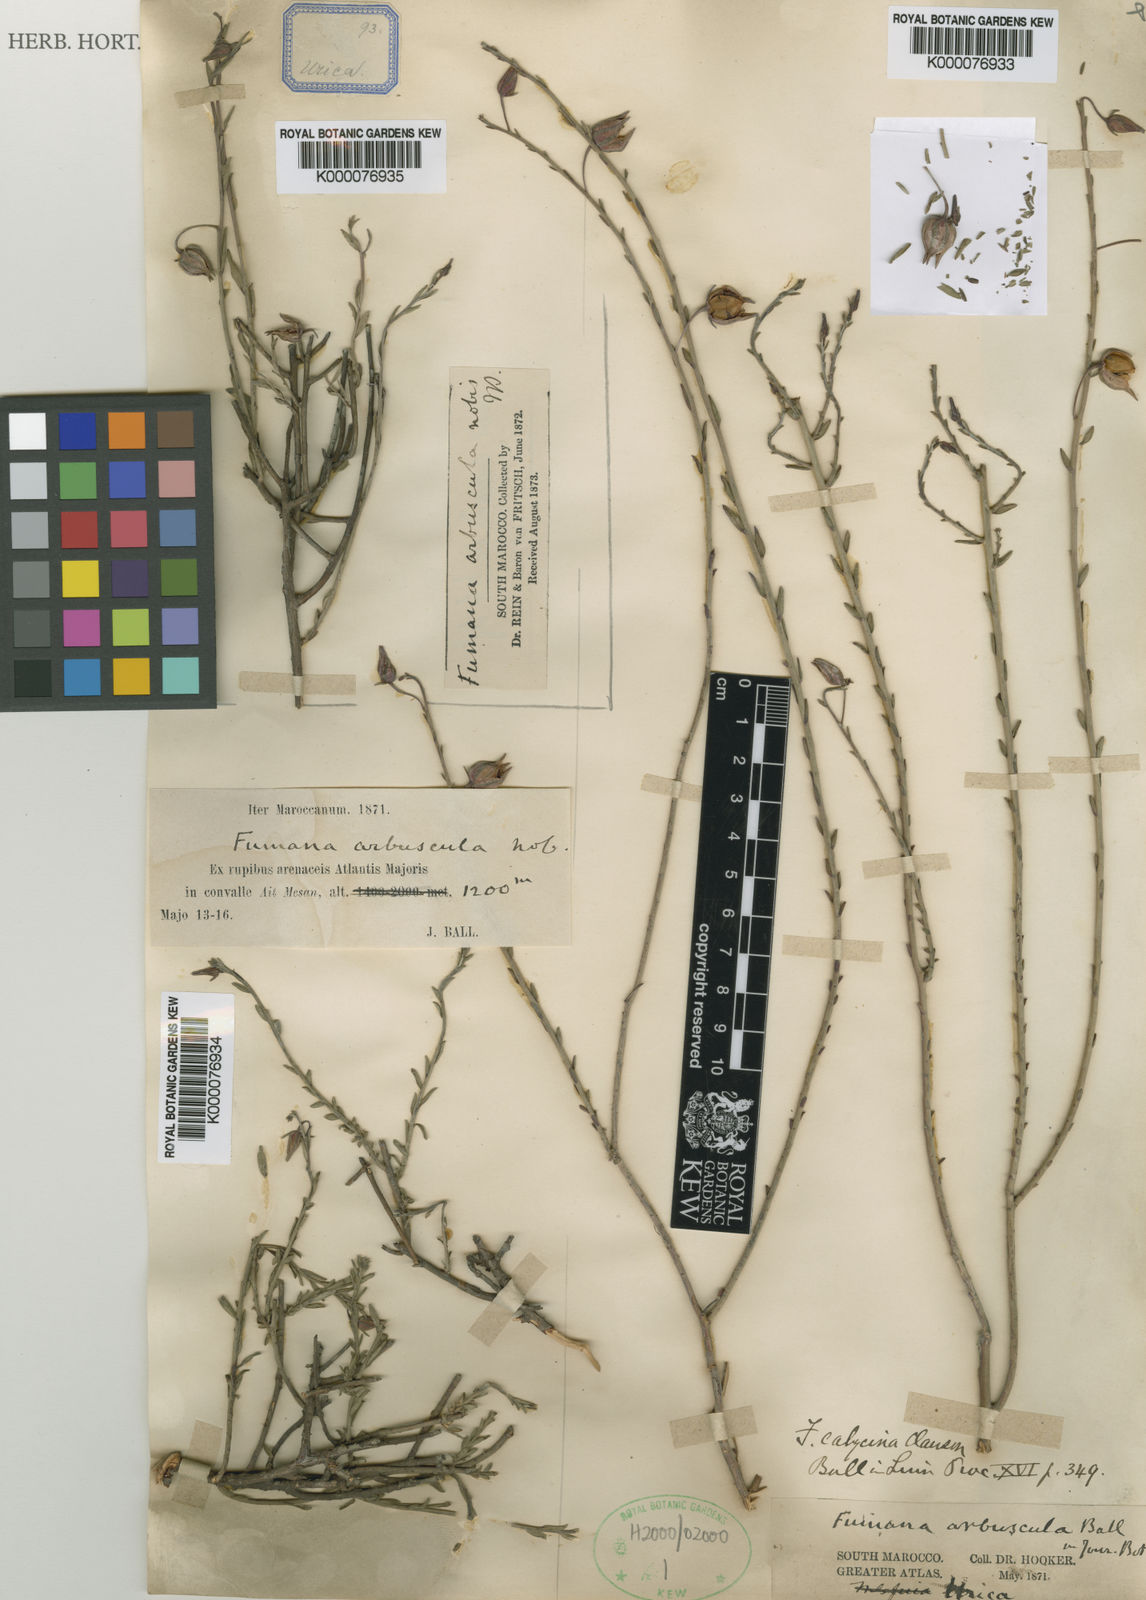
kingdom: Plantae
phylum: Tracheophyta
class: Magnoliopsida
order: Malvales
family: Cistaceae
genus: Fumana
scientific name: Fumana fontanesii
